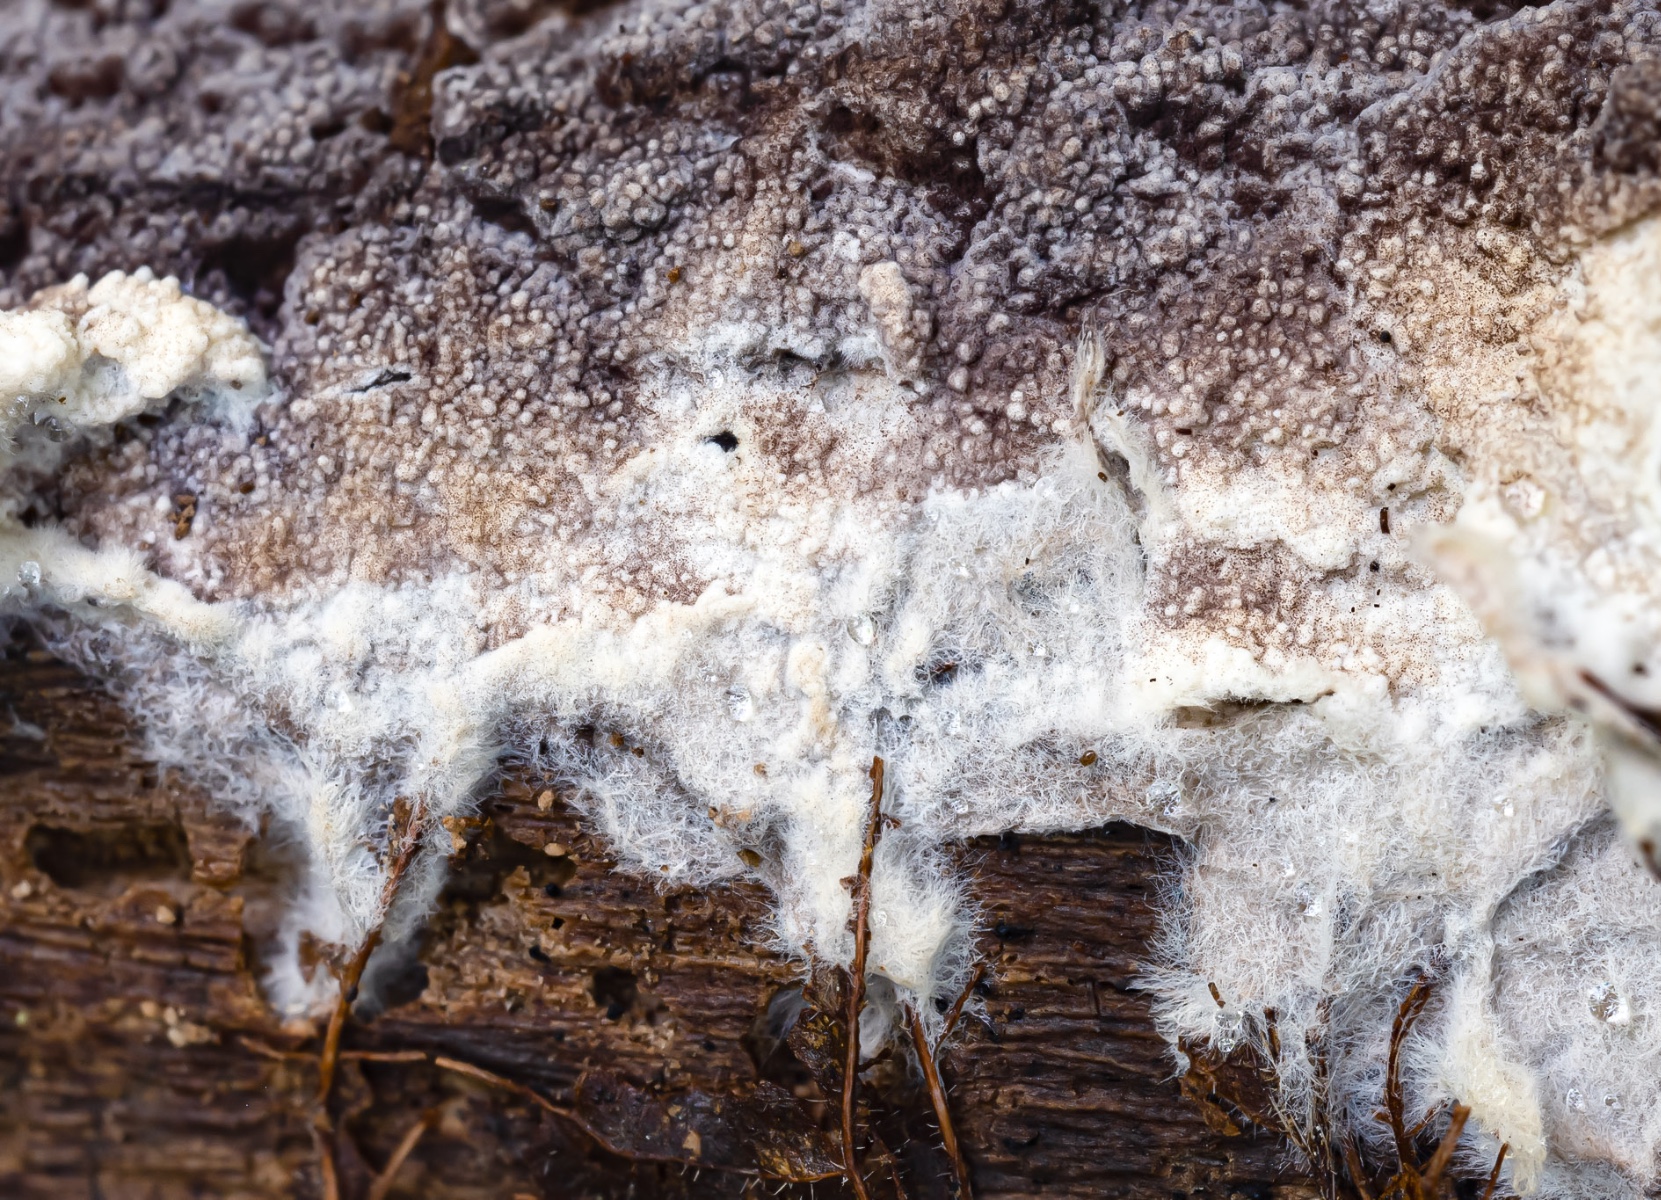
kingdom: Fungi
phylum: Basidiomycota
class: Agaricomycetes
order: Thelephorales
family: Thelephoraceae
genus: Tomentella
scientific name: Tomentella asperula
